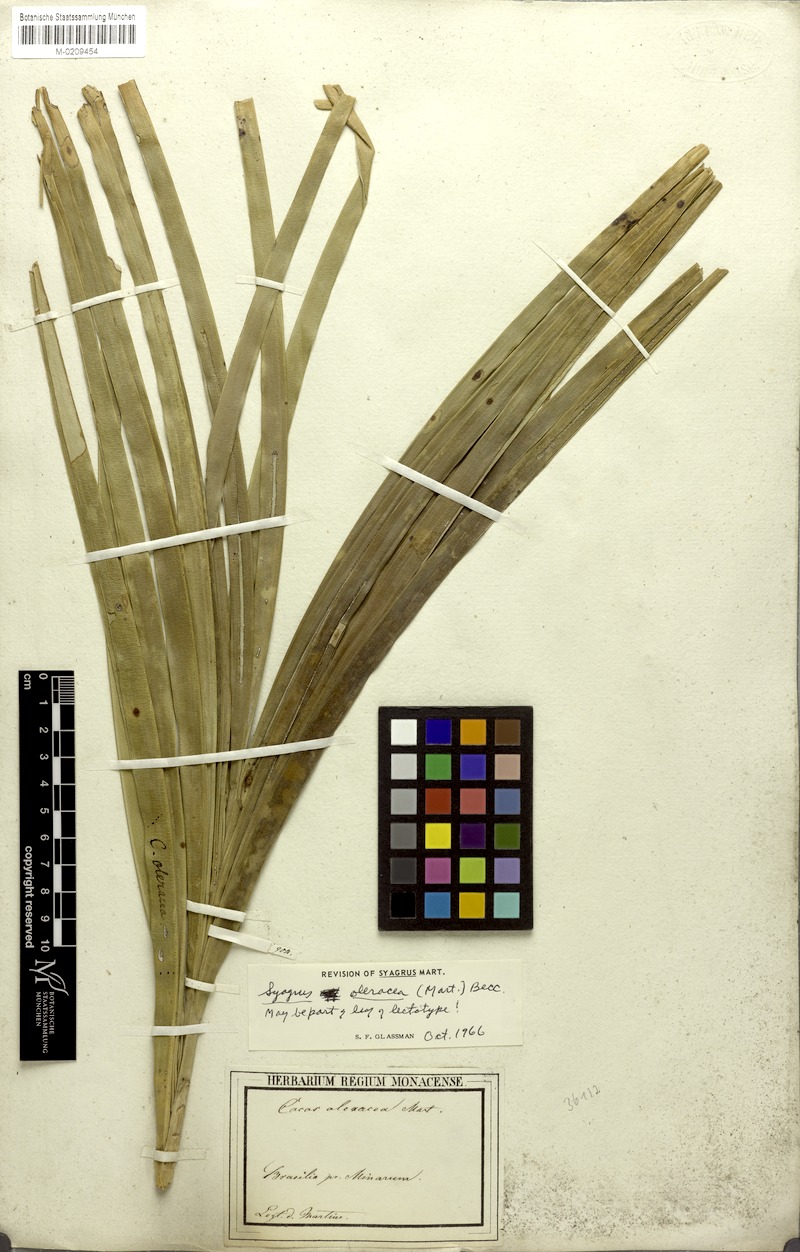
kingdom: Plantae
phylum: Tracheophyta
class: Liliopsida
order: Arecales
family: Arecaceae
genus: Syagrus
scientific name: Syagrus oleracea
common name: Catole palm
